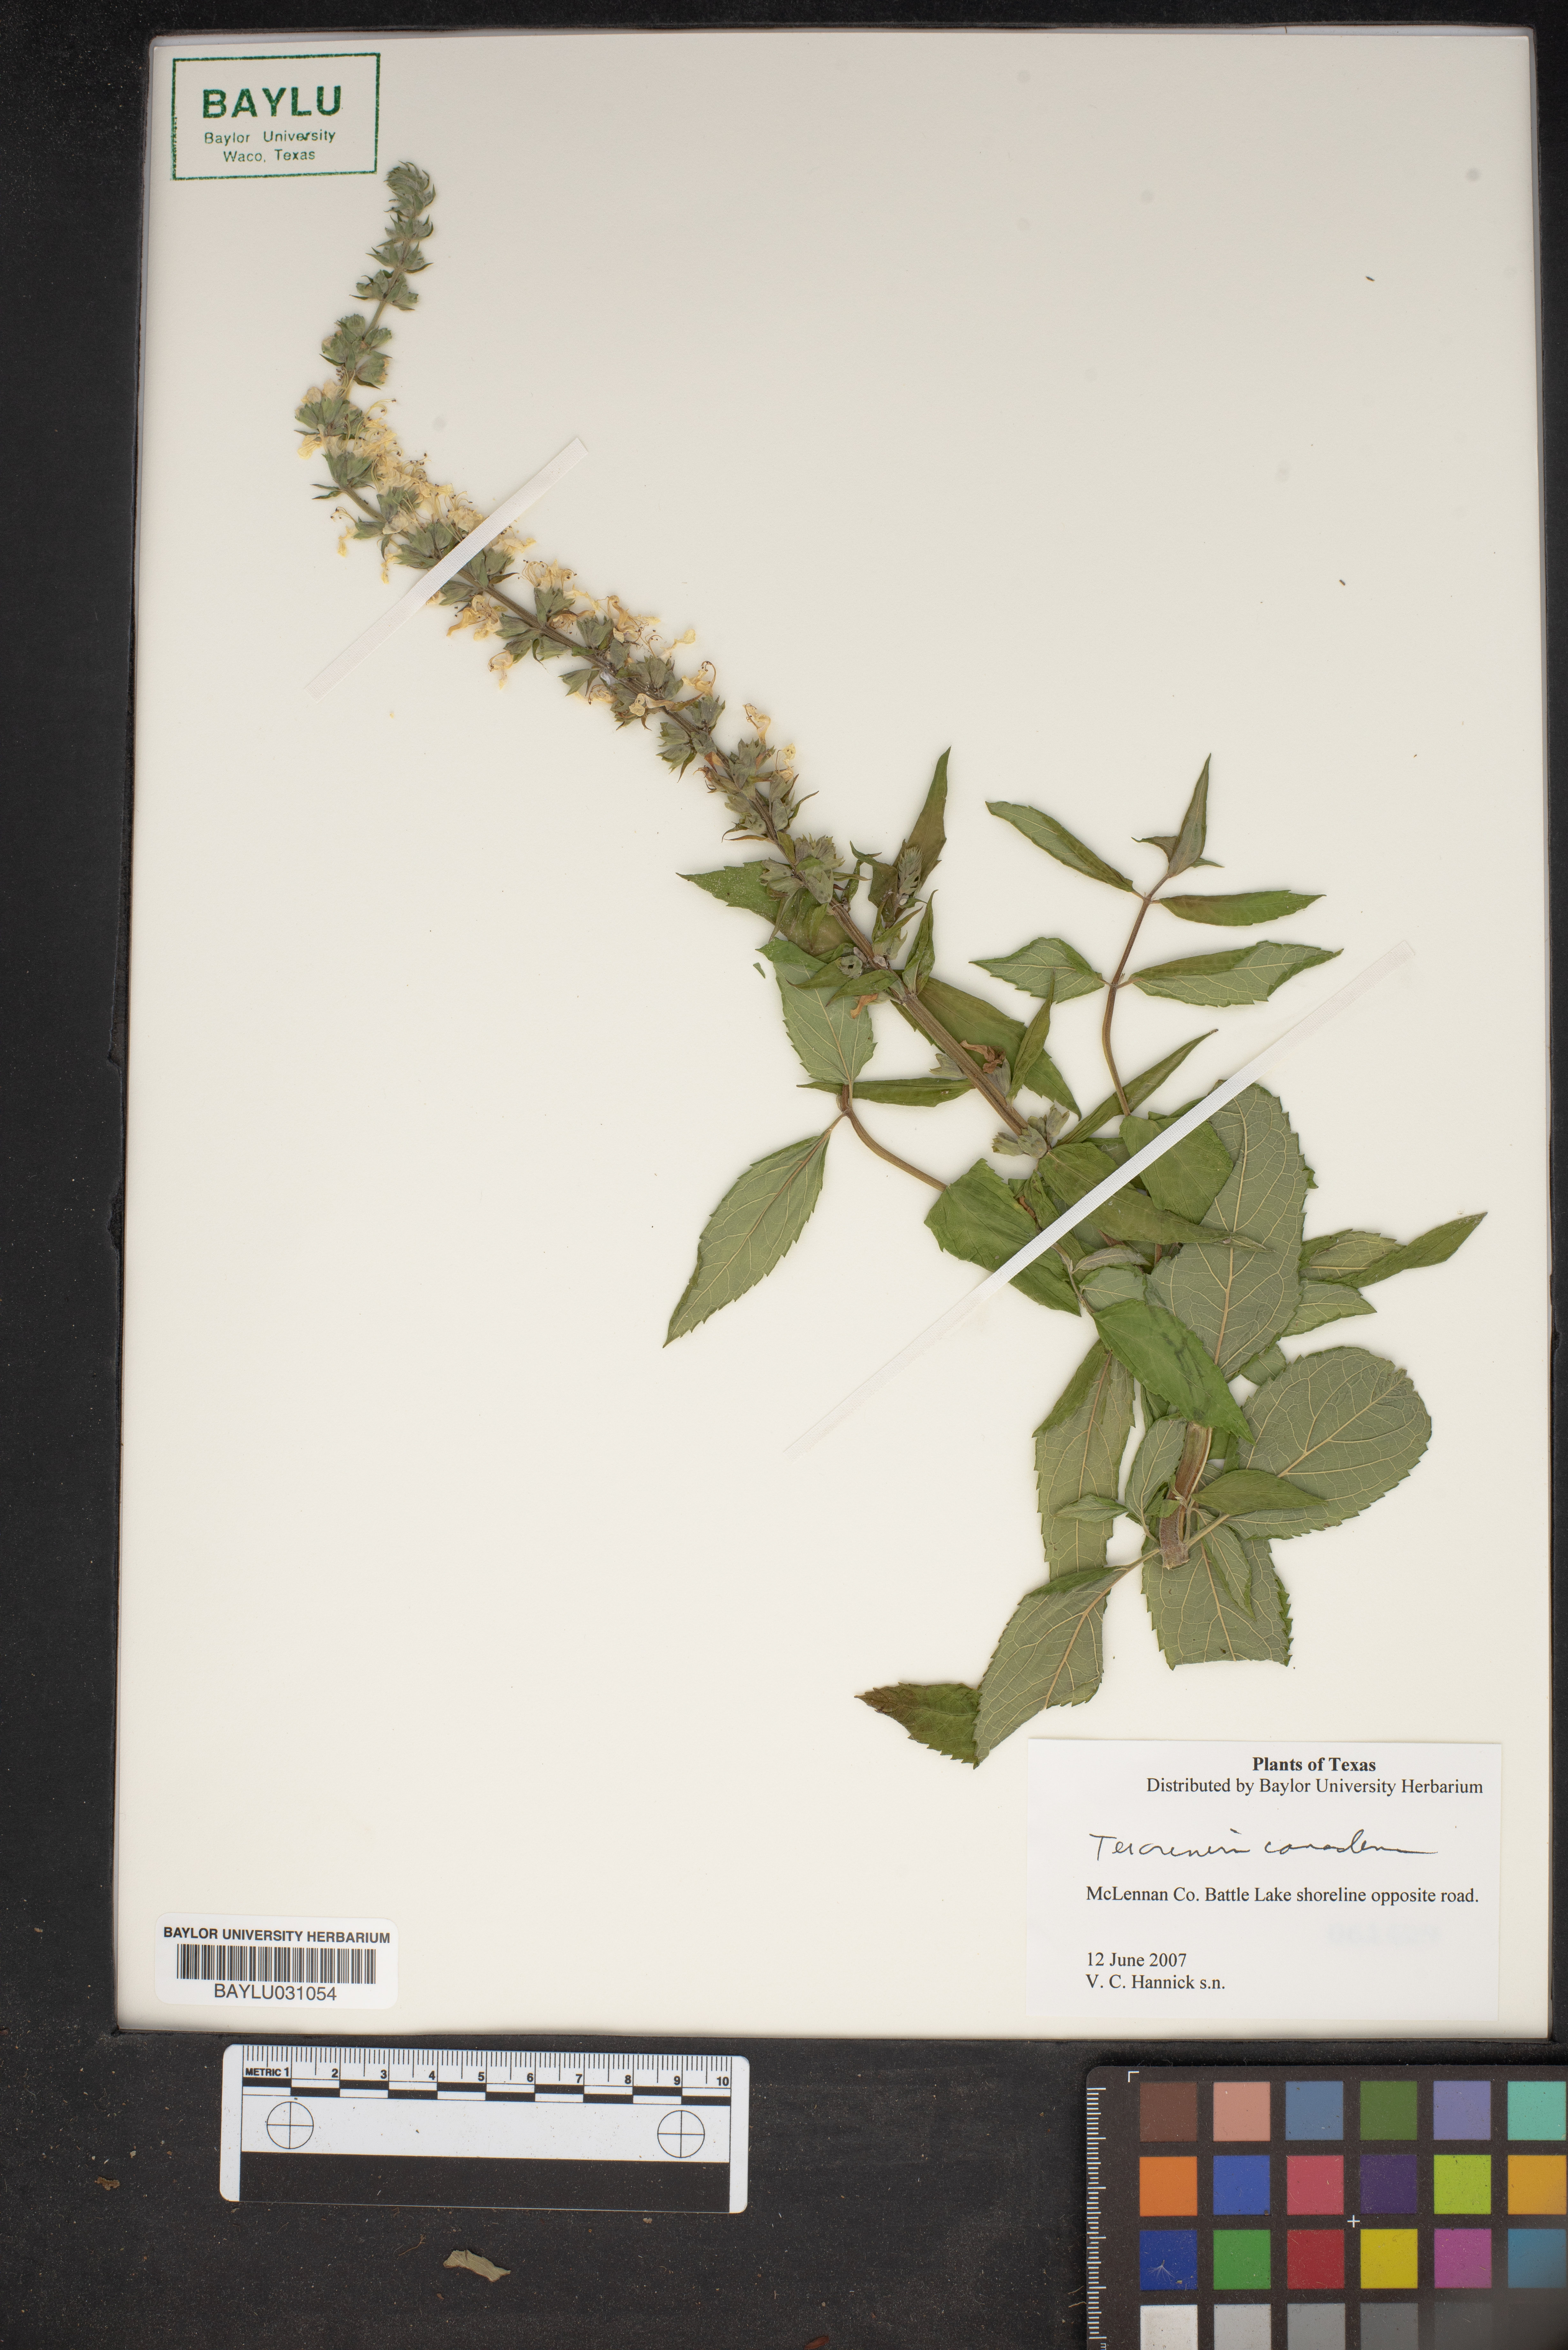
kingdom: Plantae
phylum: Tracheophyta
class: Magnoliopsida
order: Lamiales
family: Lamiaceae
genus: Teucrium
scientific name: Teucrium canadense
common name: American germander
